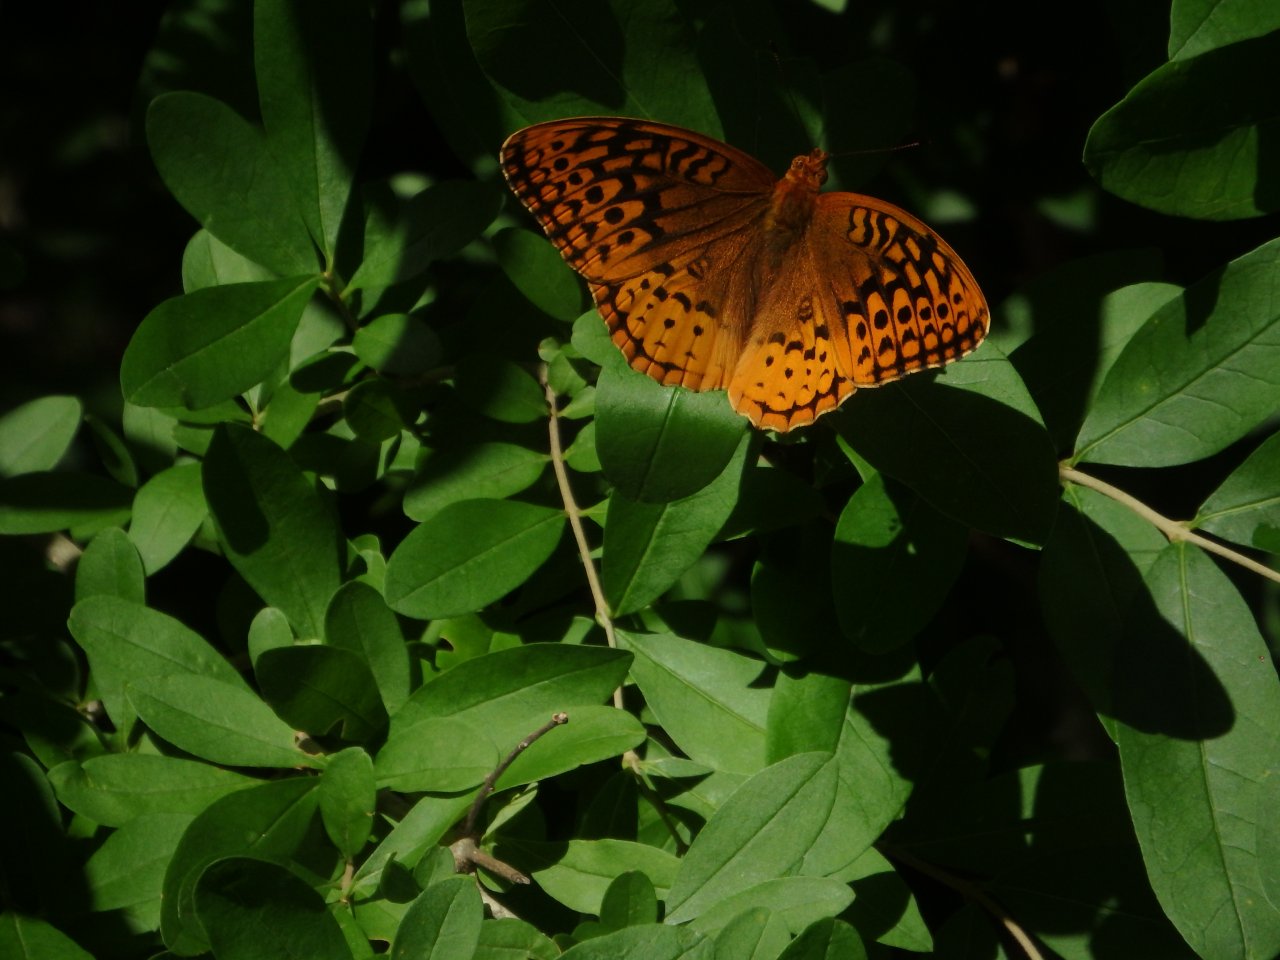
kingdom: Animalia
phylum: Arthropoda
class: Insecta
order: Lepidoptera
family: Nymphalidae
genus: Speyeria
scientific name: Speyeria cybele
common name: Great Spangled Fritillary
